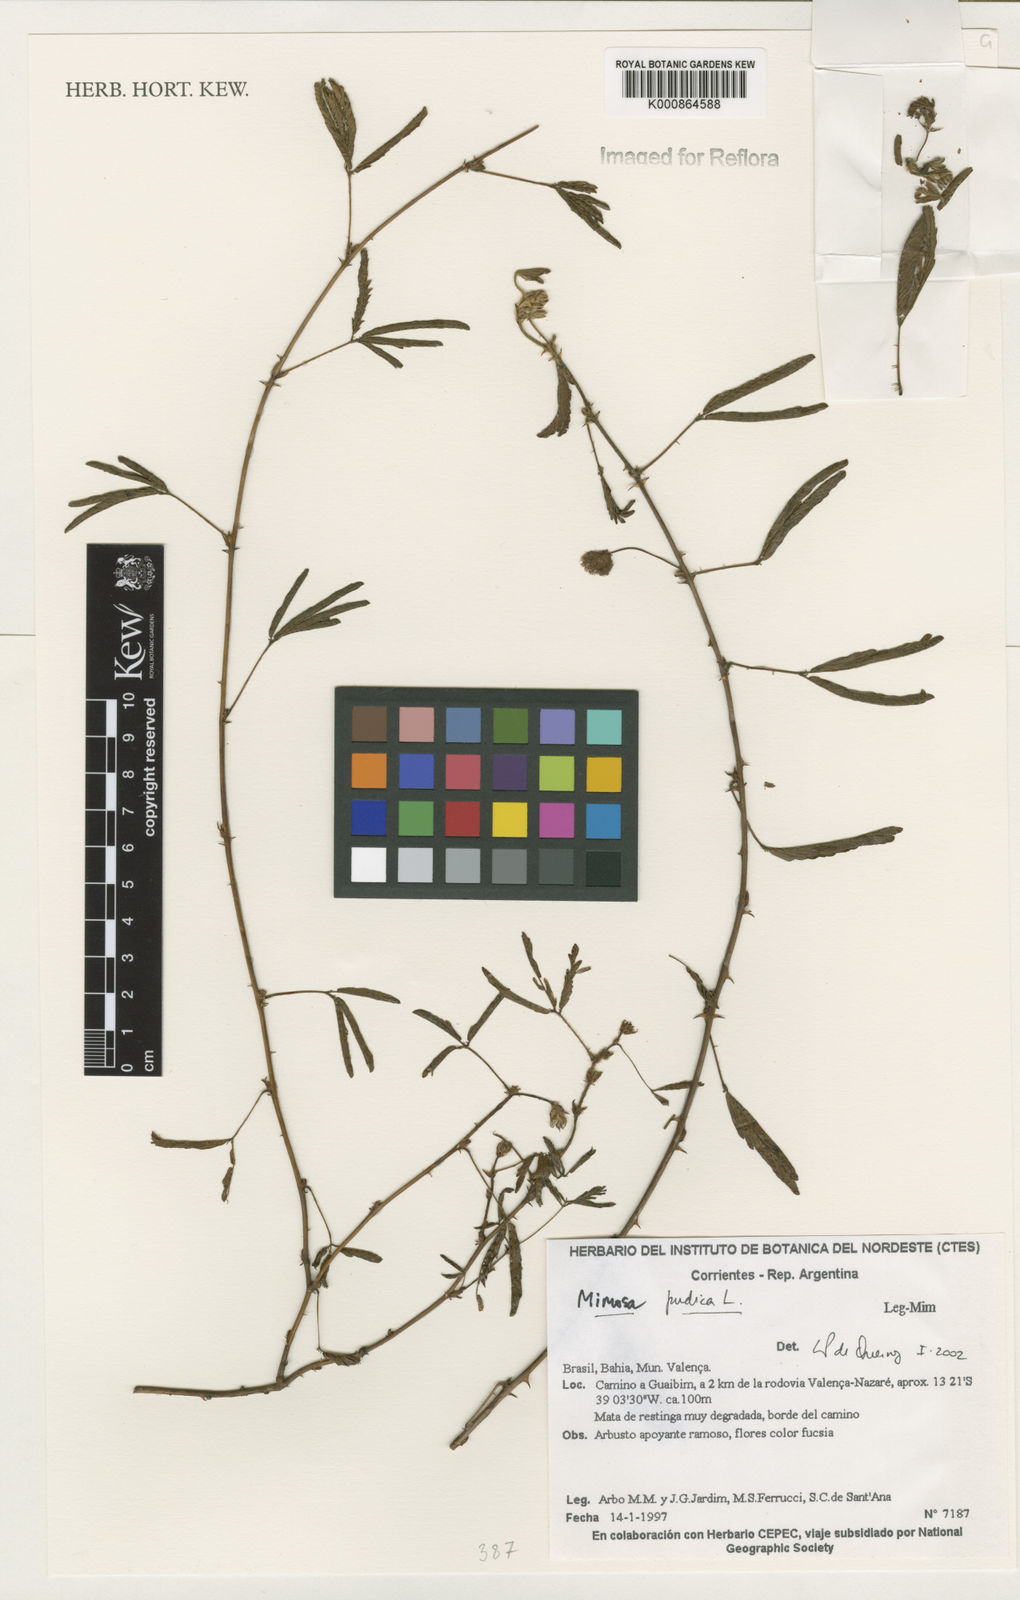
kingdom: Plantae
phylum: Tracheophyta
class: Magnoliopsida
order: Fabales
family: Fabaceae
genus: Mimosa
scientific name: Mimosa pudica
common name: Sensitive plant
